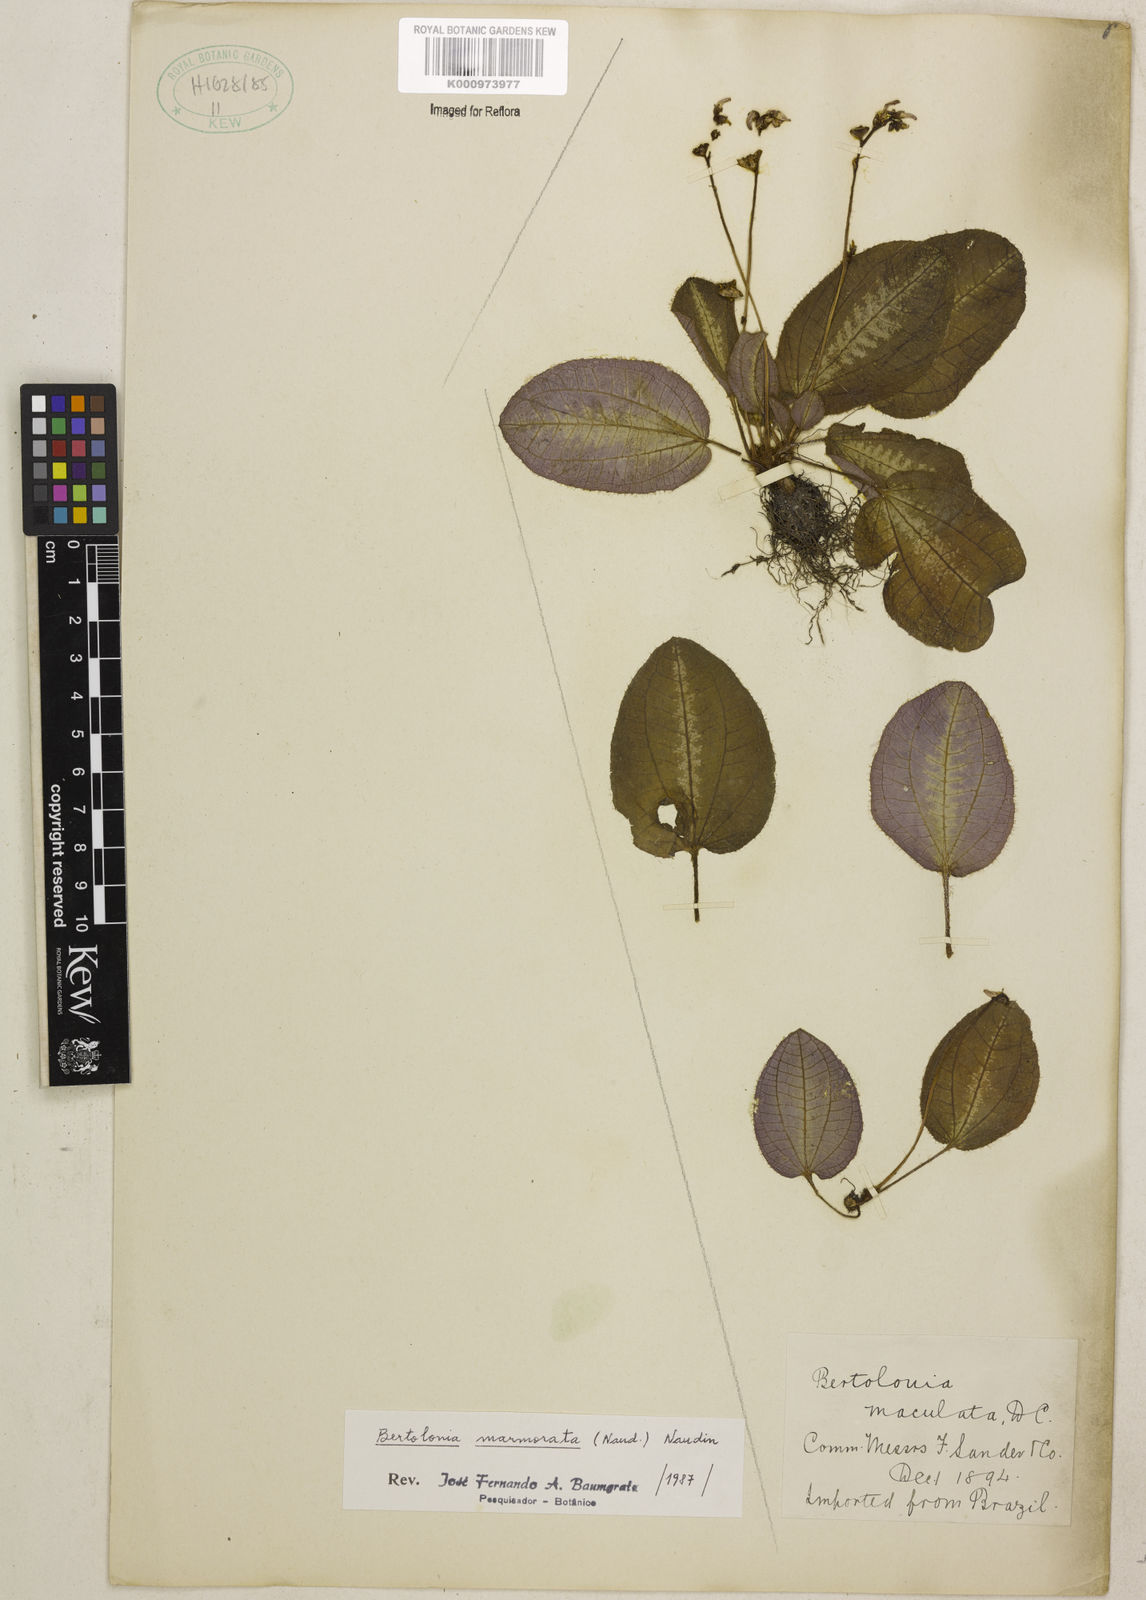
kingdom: Plantae
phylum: Tracheophyta
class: Magnoliopsida
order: Myrtales
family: Melastomataceae
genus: Bertolonia
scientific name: Bertolonia marmorata
